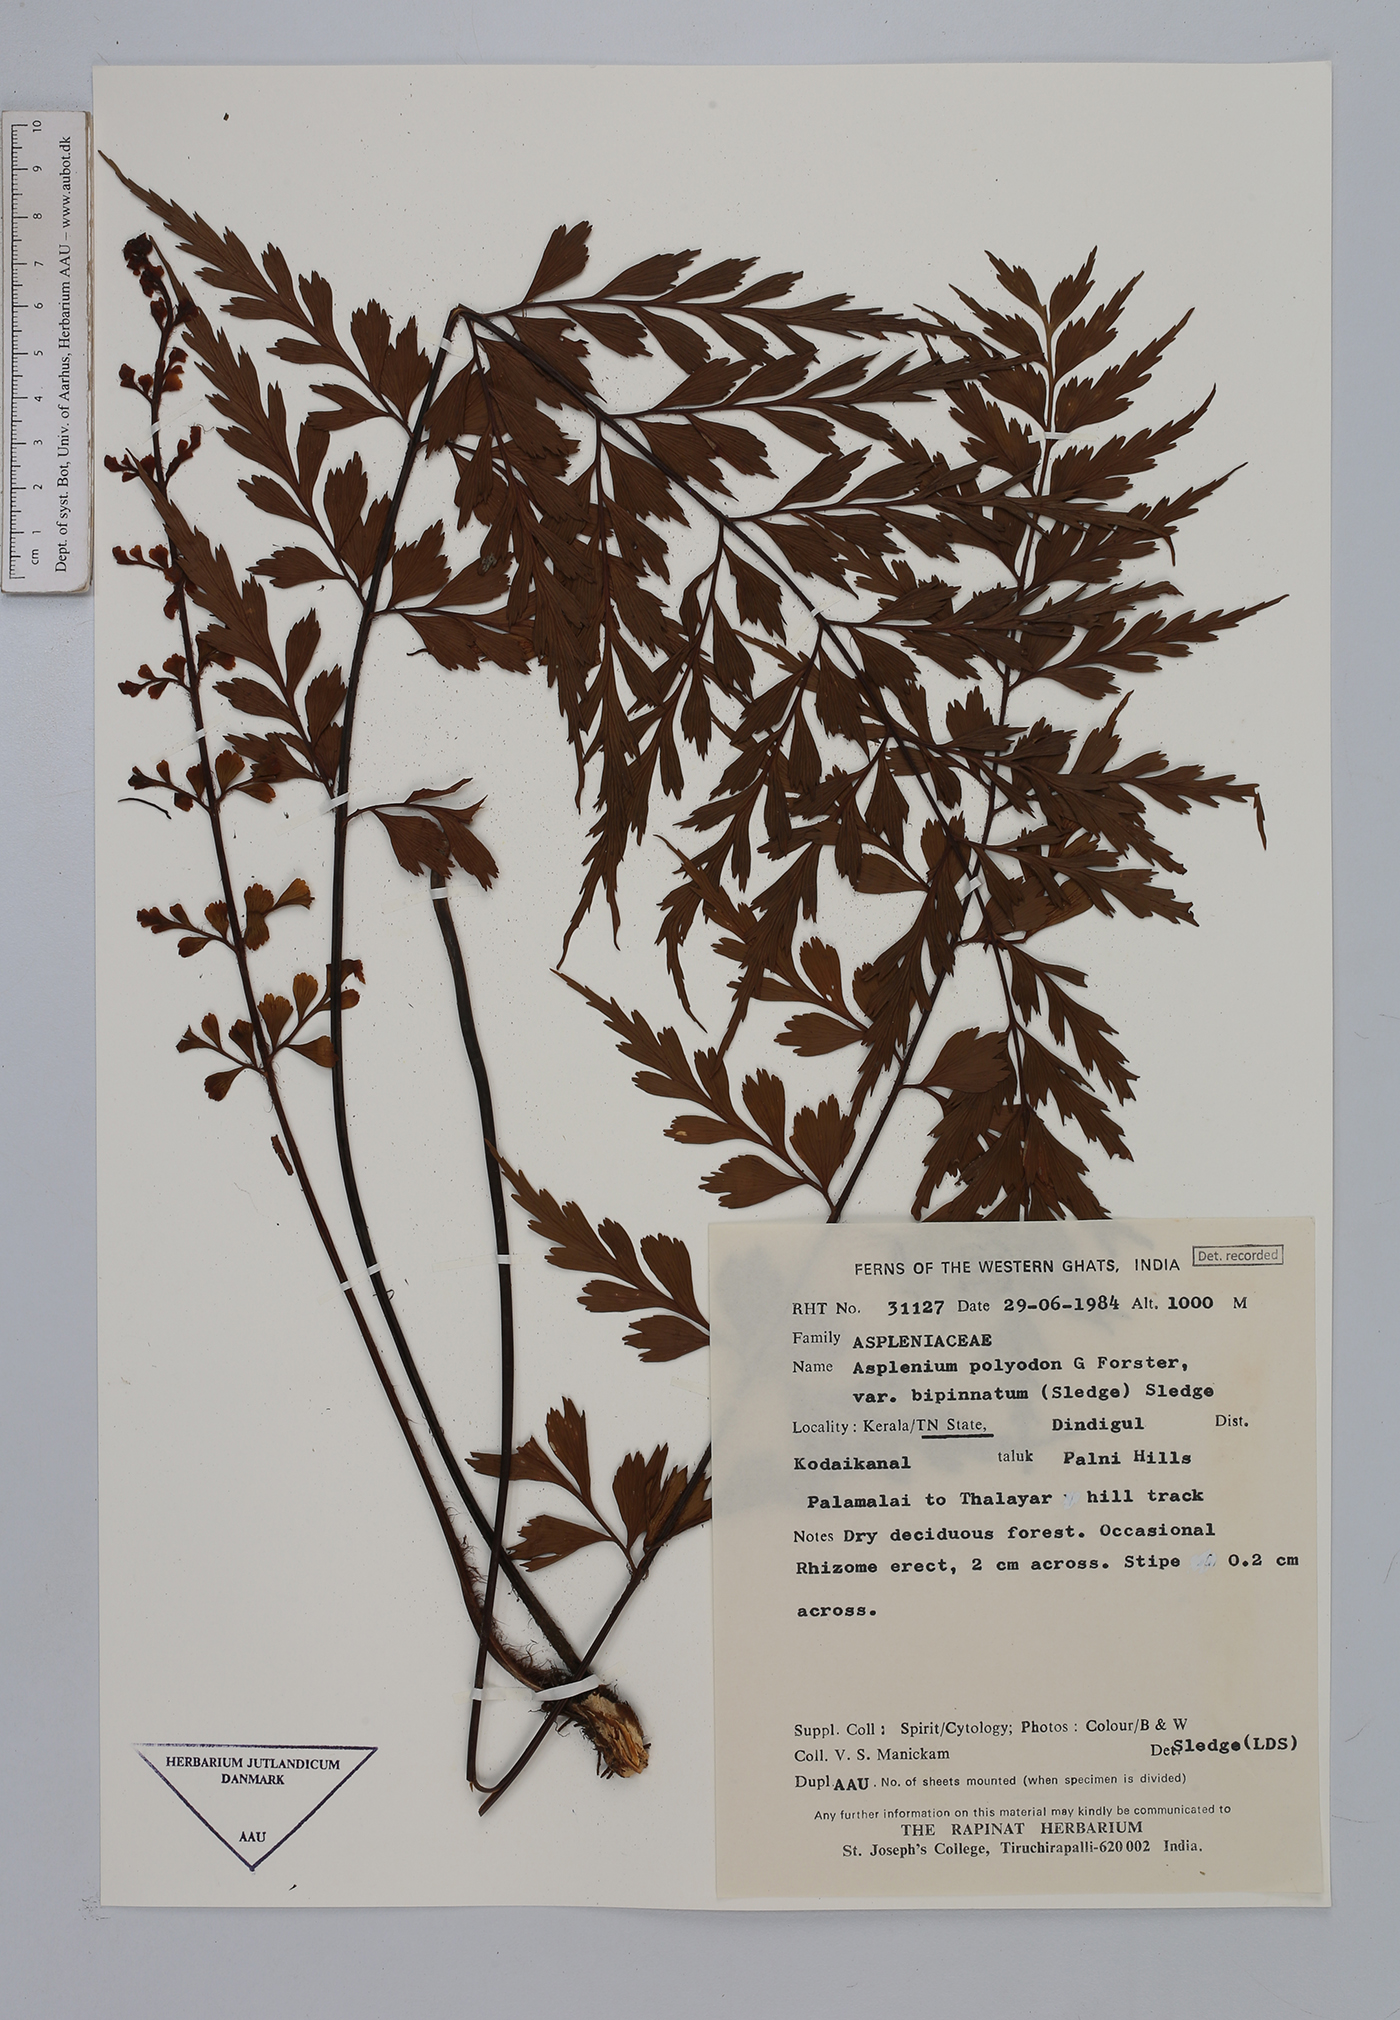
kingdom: Plantae
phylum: Tracheophyta
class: Polypodiopsida
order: Polypodiales
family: Aspleniaceae
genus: Asplenium
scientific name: Asplenium mysorense
